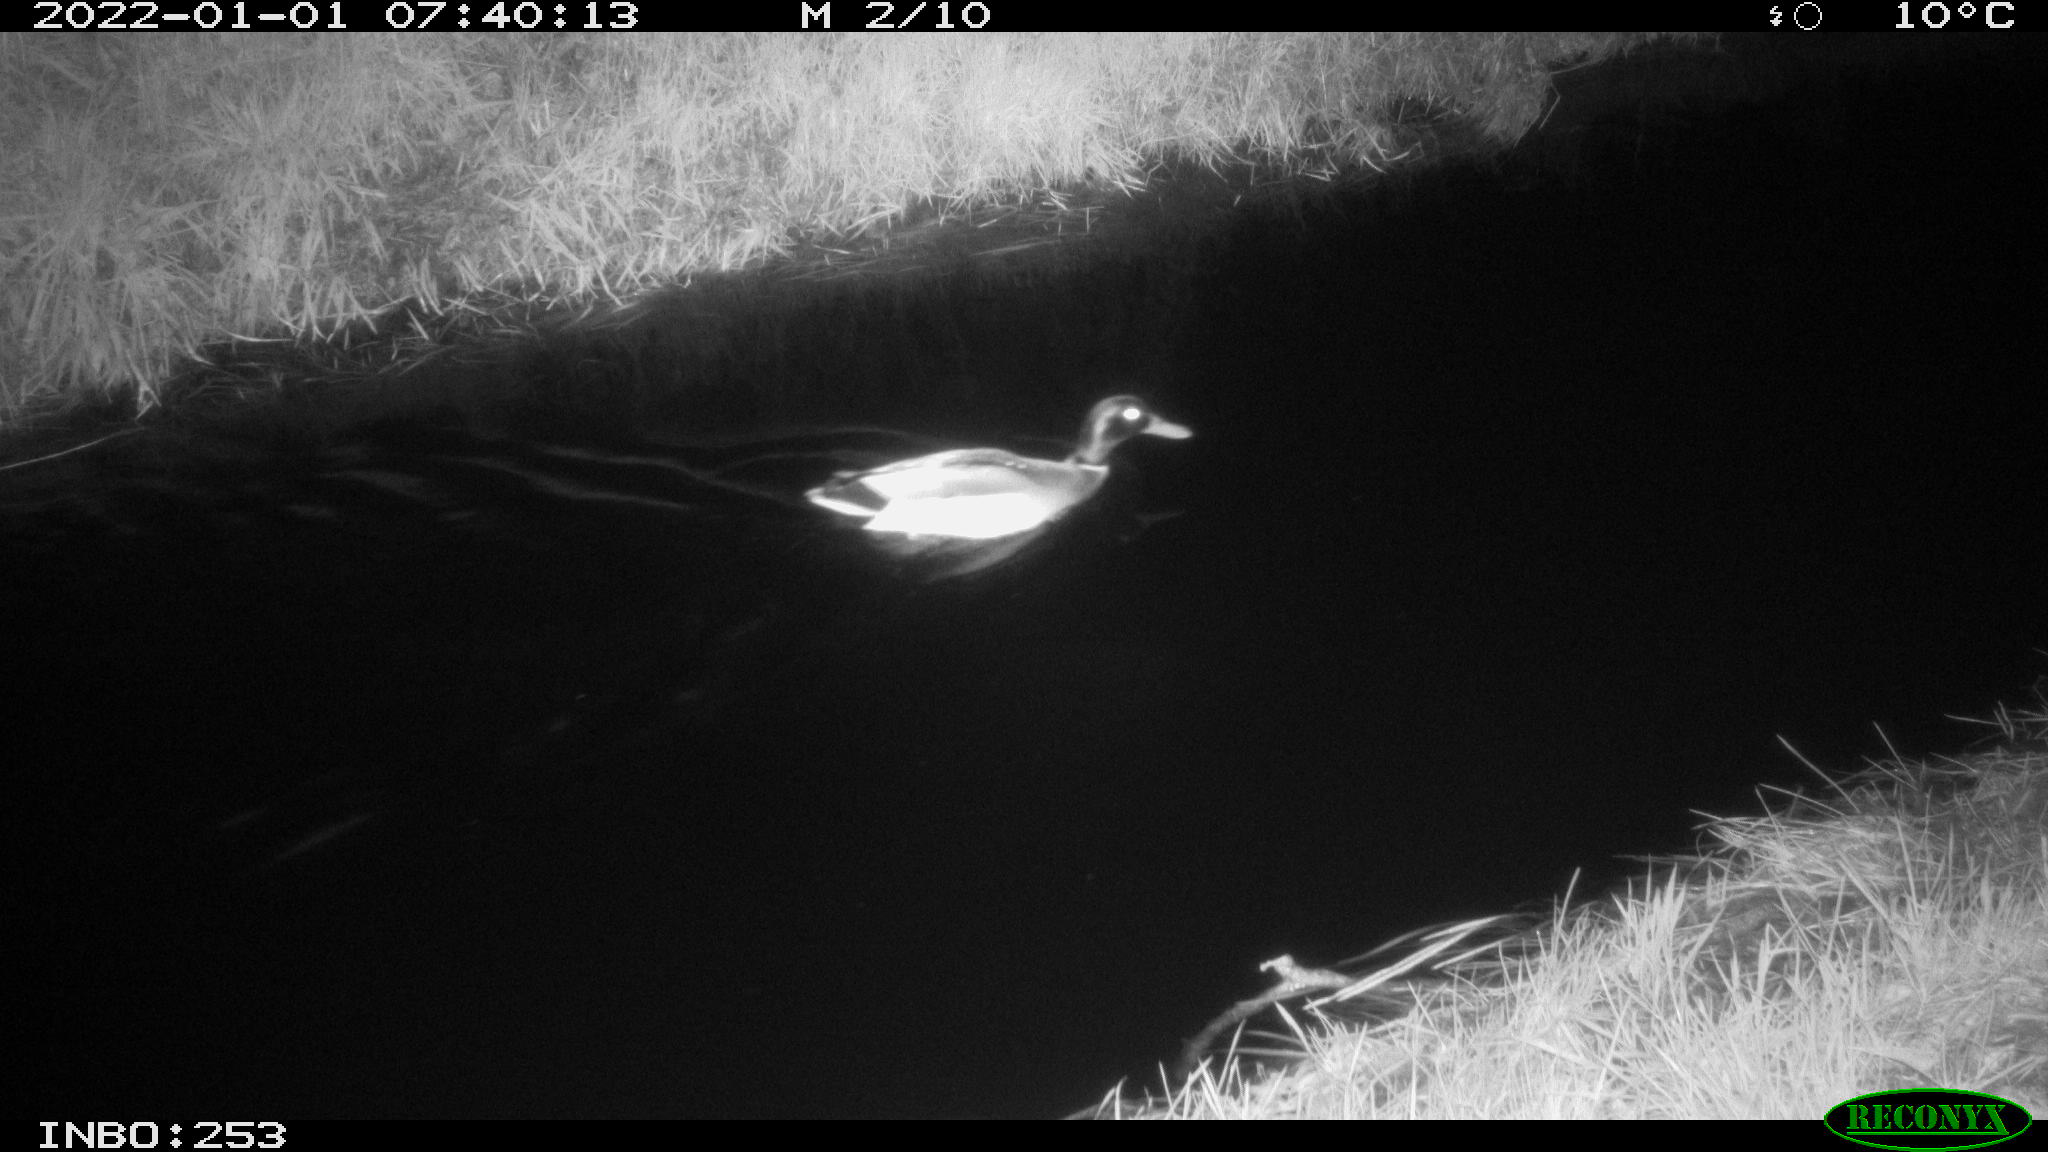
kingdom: Animalia
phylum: Chordata
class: Aves
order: Anseriformes
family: Anatidae
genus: Anas
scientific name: Anas
